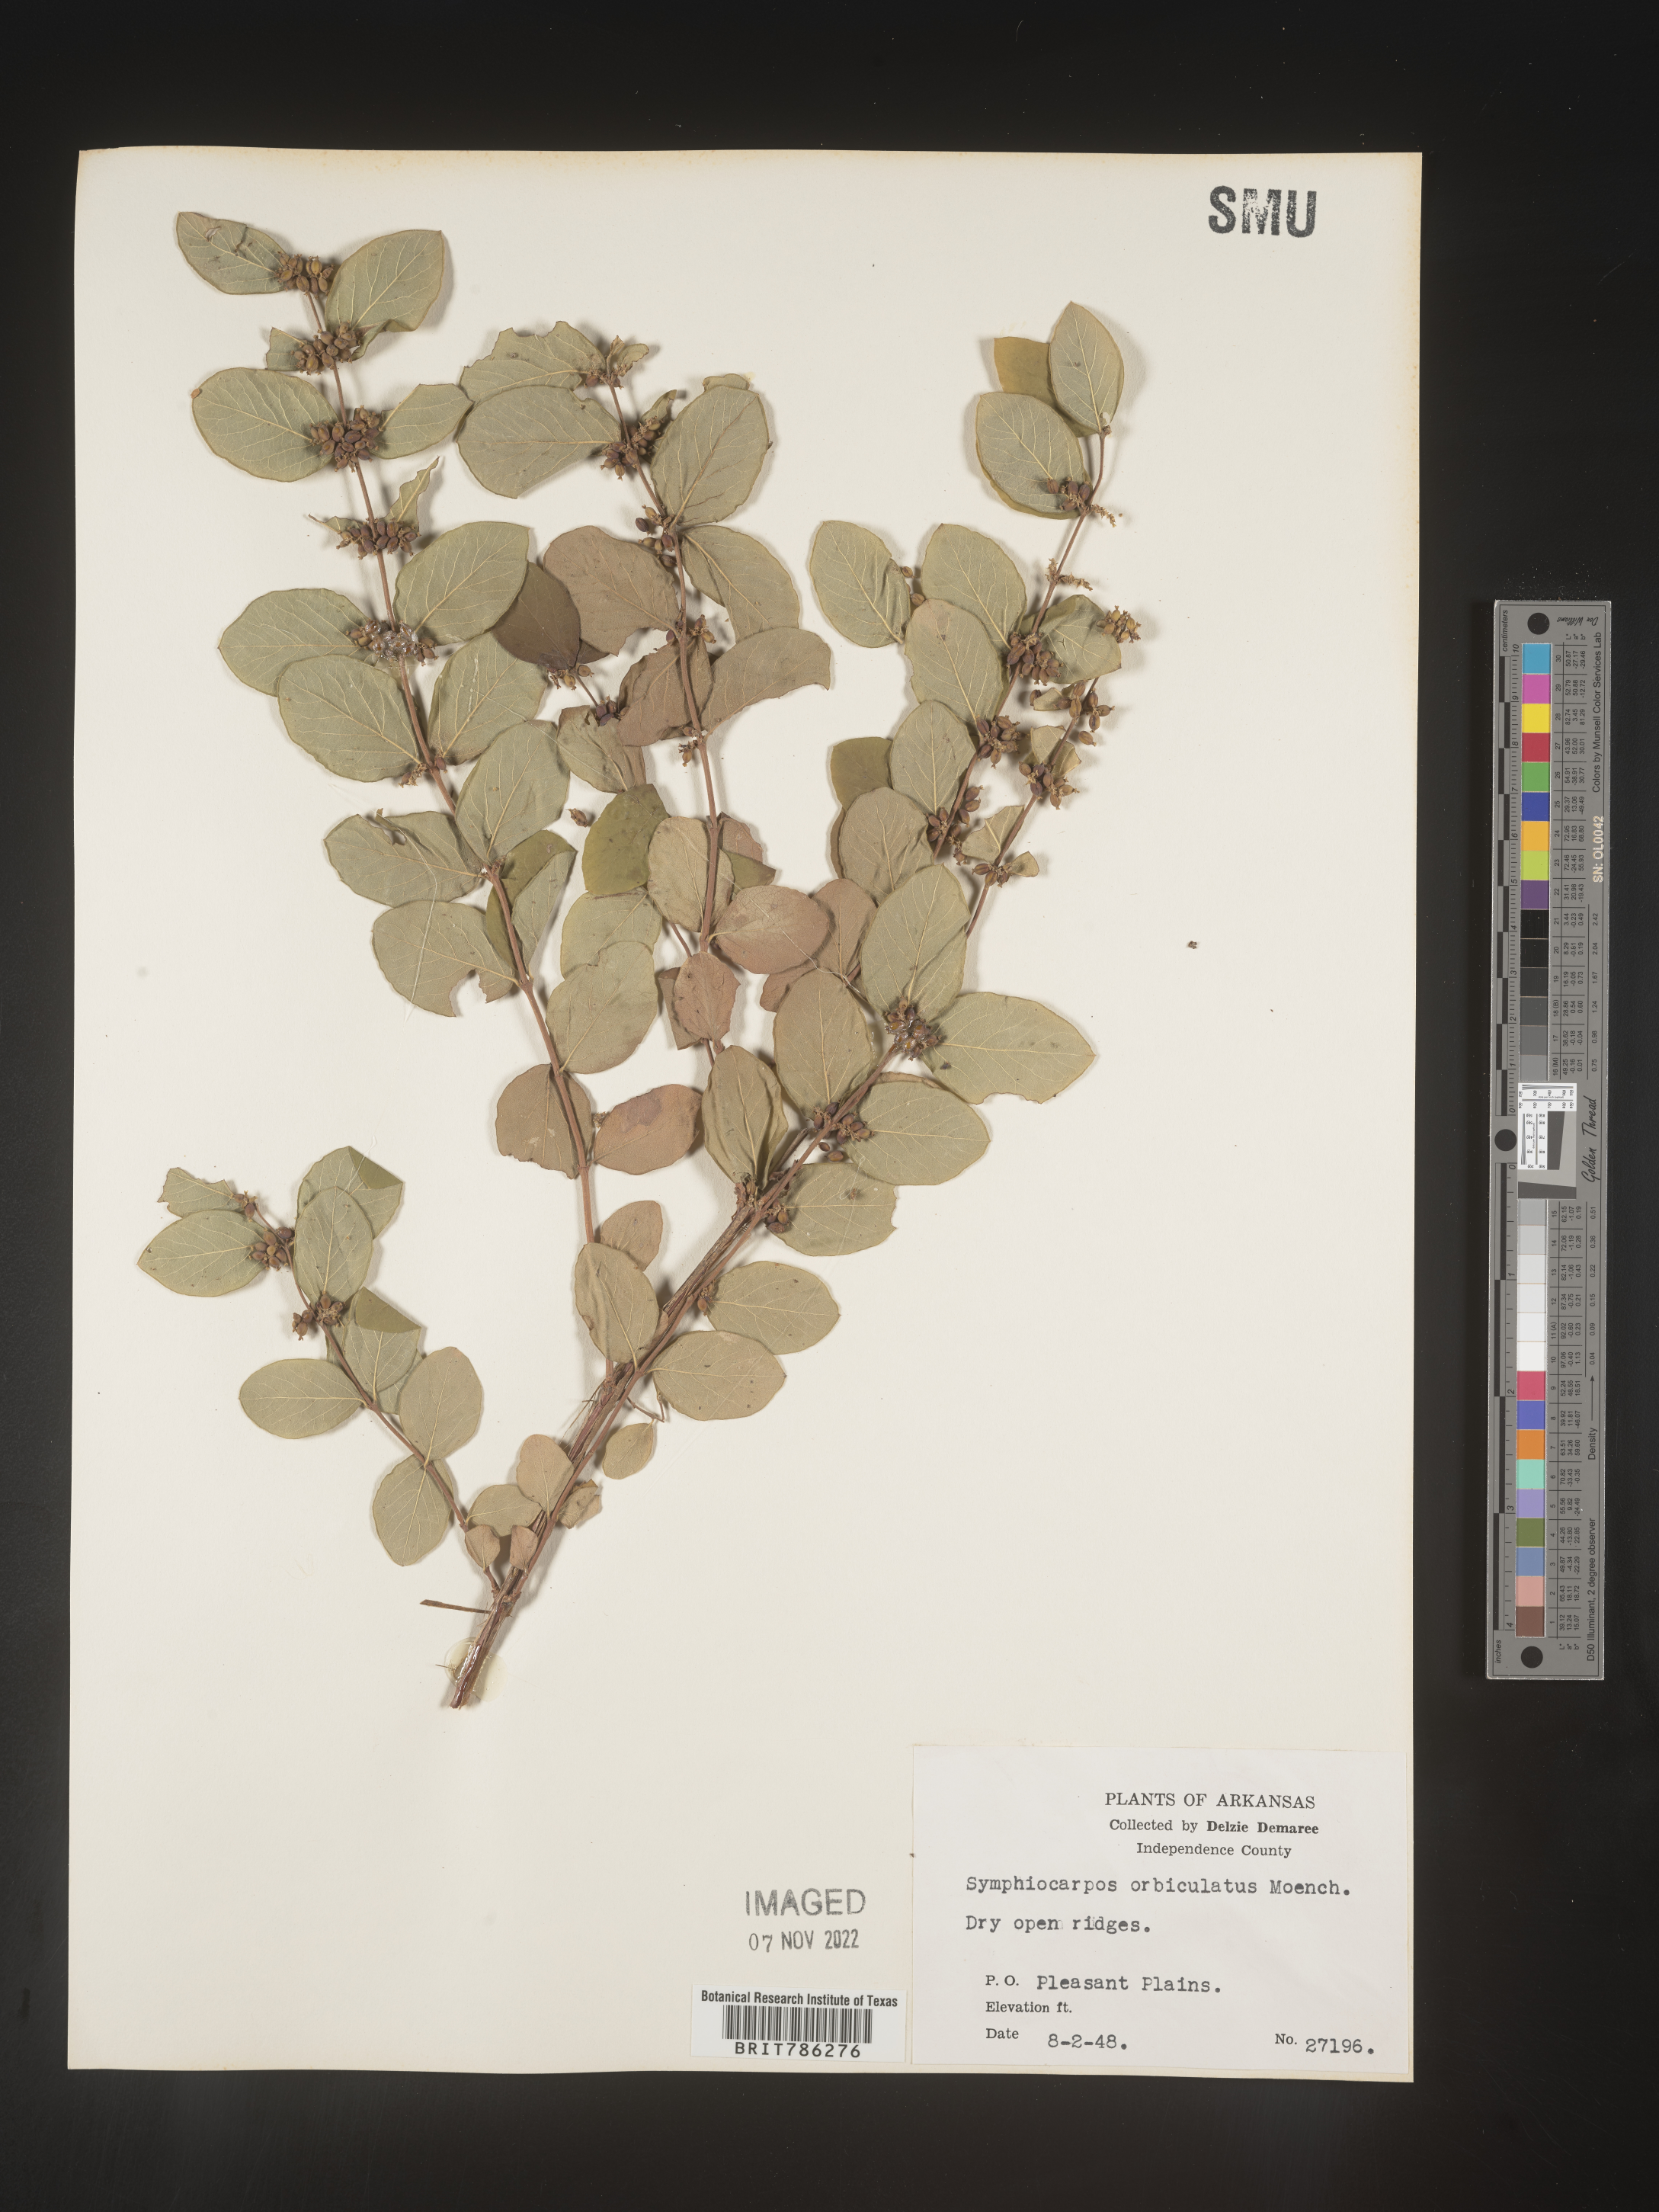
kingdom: Plantae
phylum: Tracheophyta
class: Magnoliopsida
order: Dipsacales
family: Caprifoliaceae
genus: Symphoricarpos
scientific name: Symphoricarpos orbiculatus
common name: Coralberry
